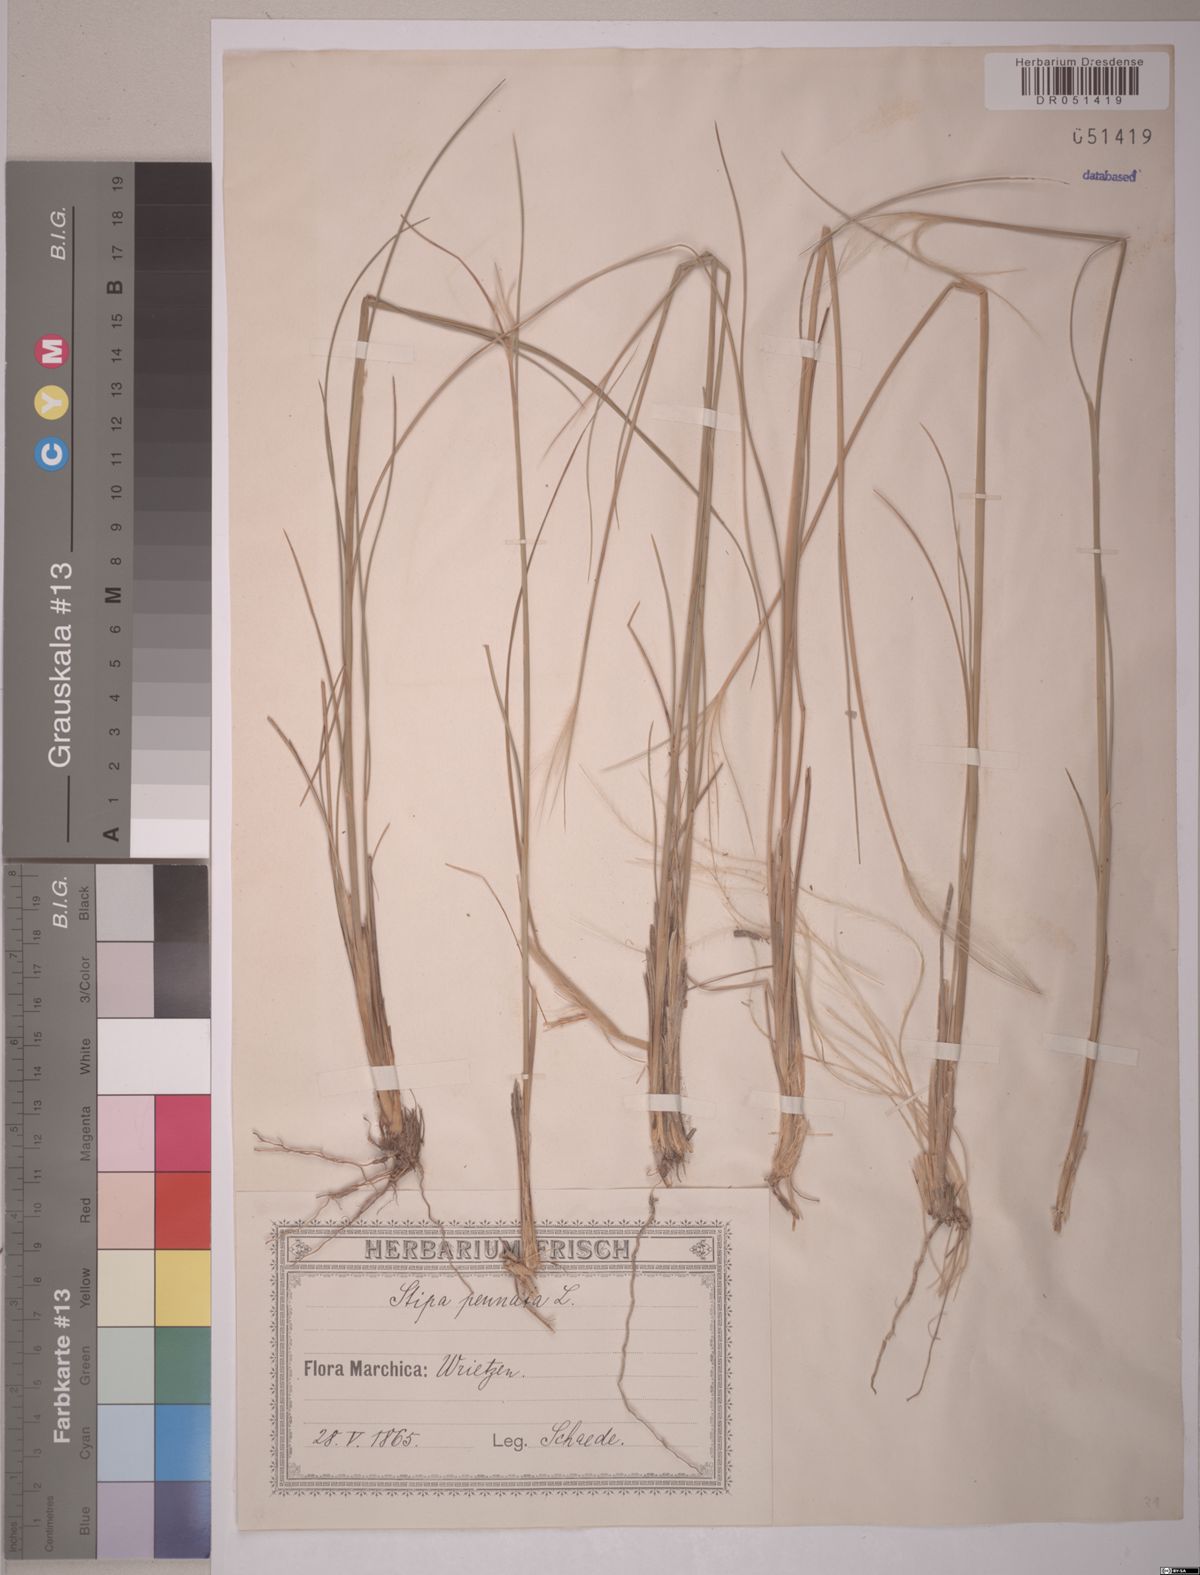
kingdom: Plantae
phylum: Tracheophyta
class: Liliopsida
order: Poales
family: Poaceae
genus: Stipa
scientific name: Stipa pennata
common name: European feather grass
